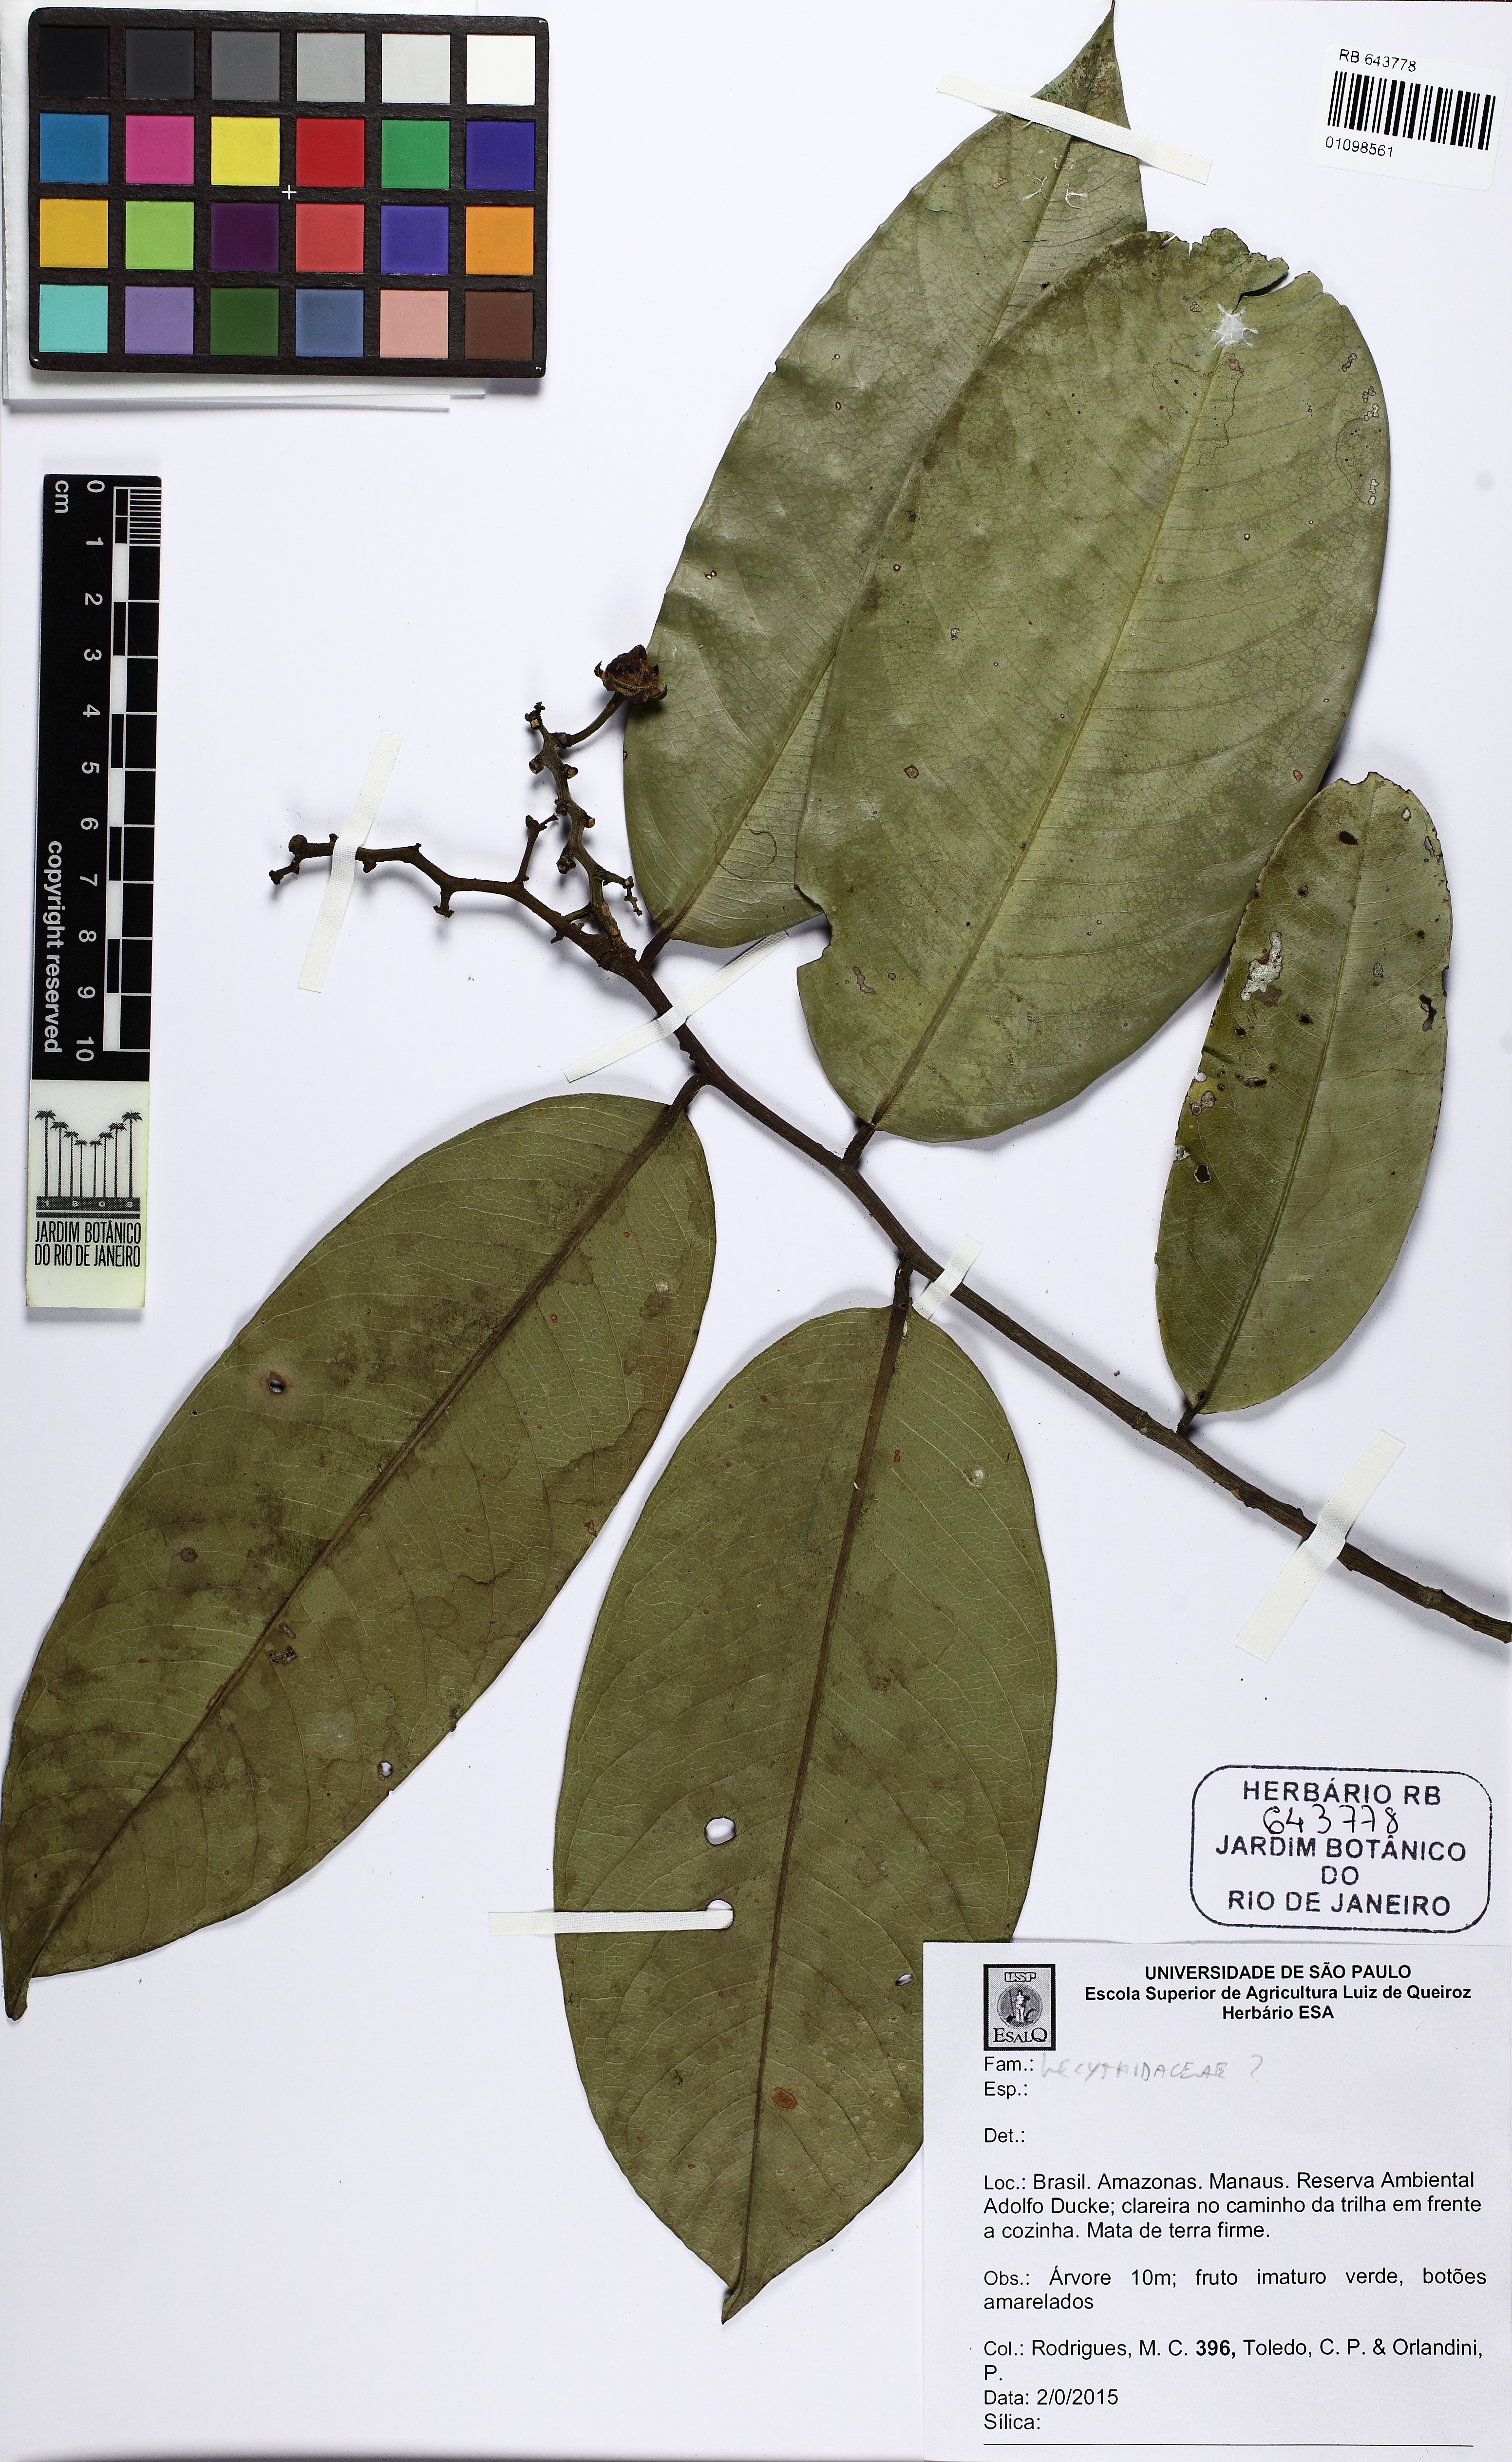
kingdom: Plantae
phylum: Tracheophyta
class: Magnoliopsida
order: Ericales
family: Lecythidaceae
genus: Eschweilera
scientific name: Eschweilera coriacea
